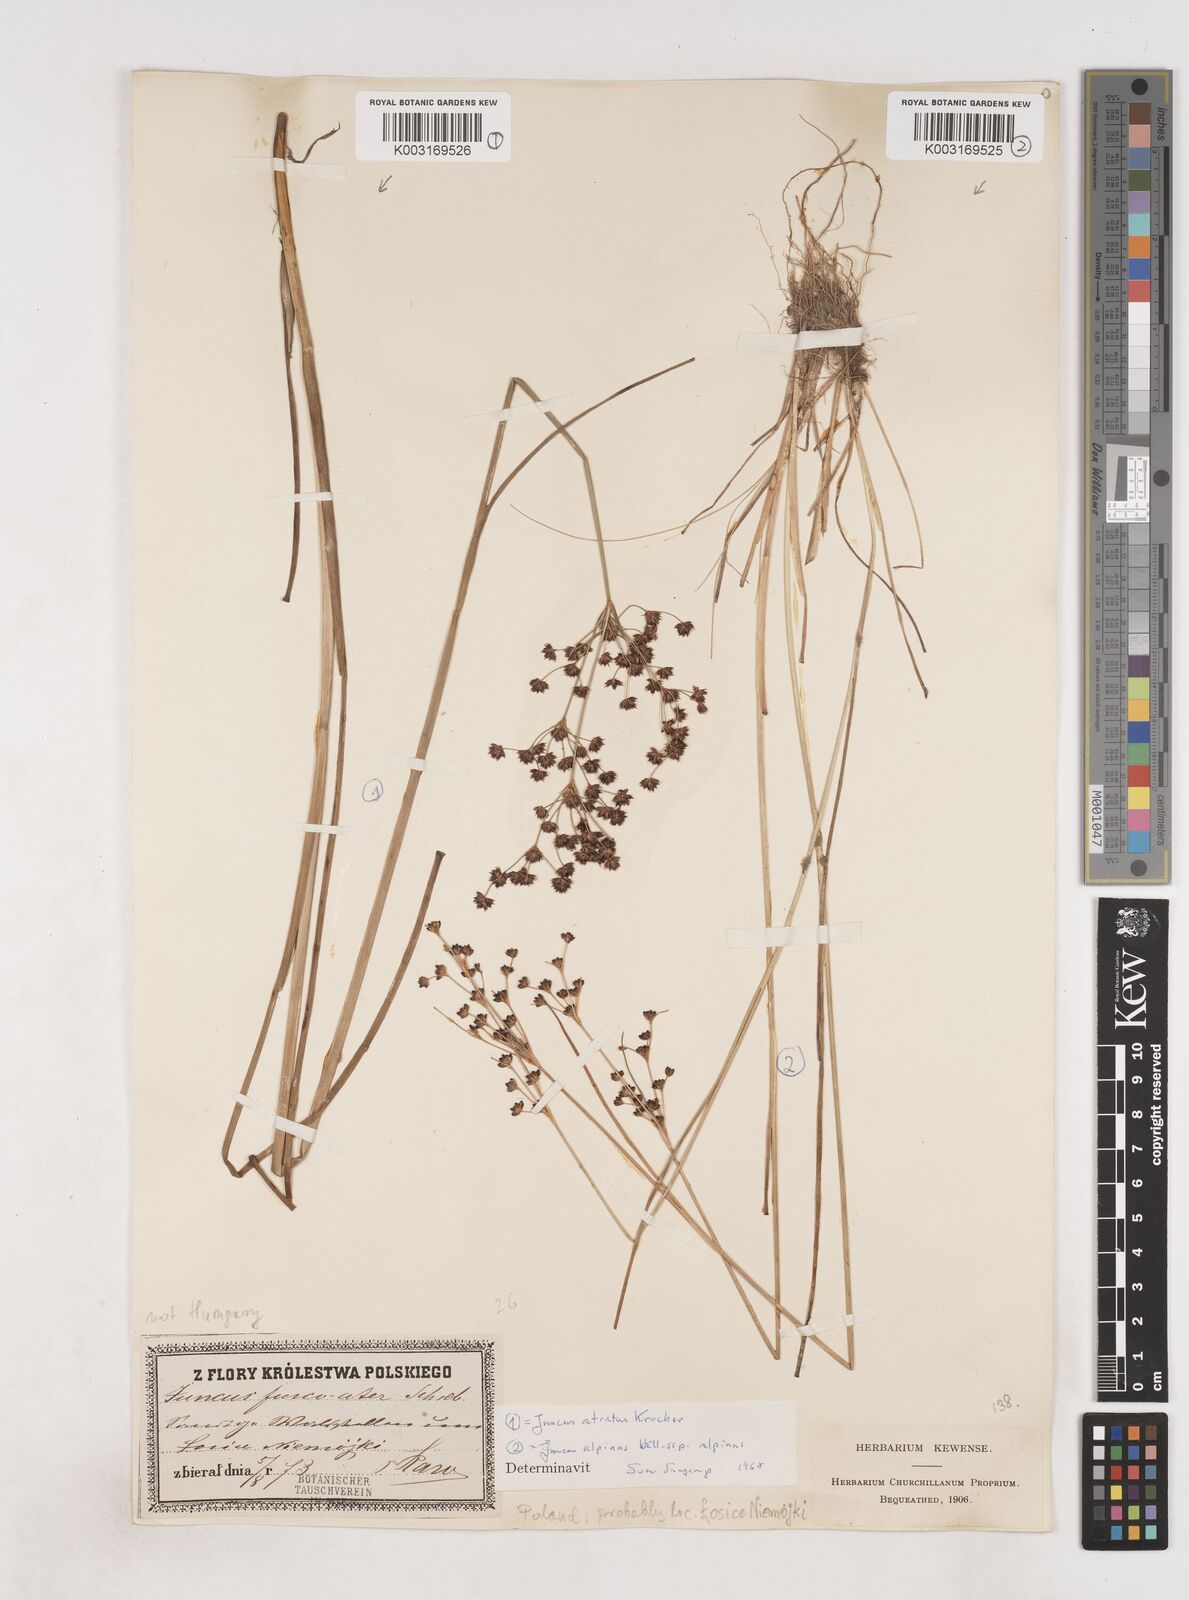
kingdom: Plantae
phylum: Tracheophyta
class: Liliopsida
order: Poales
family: Juncaceae
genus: Juncus
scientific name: Juncus atratus
